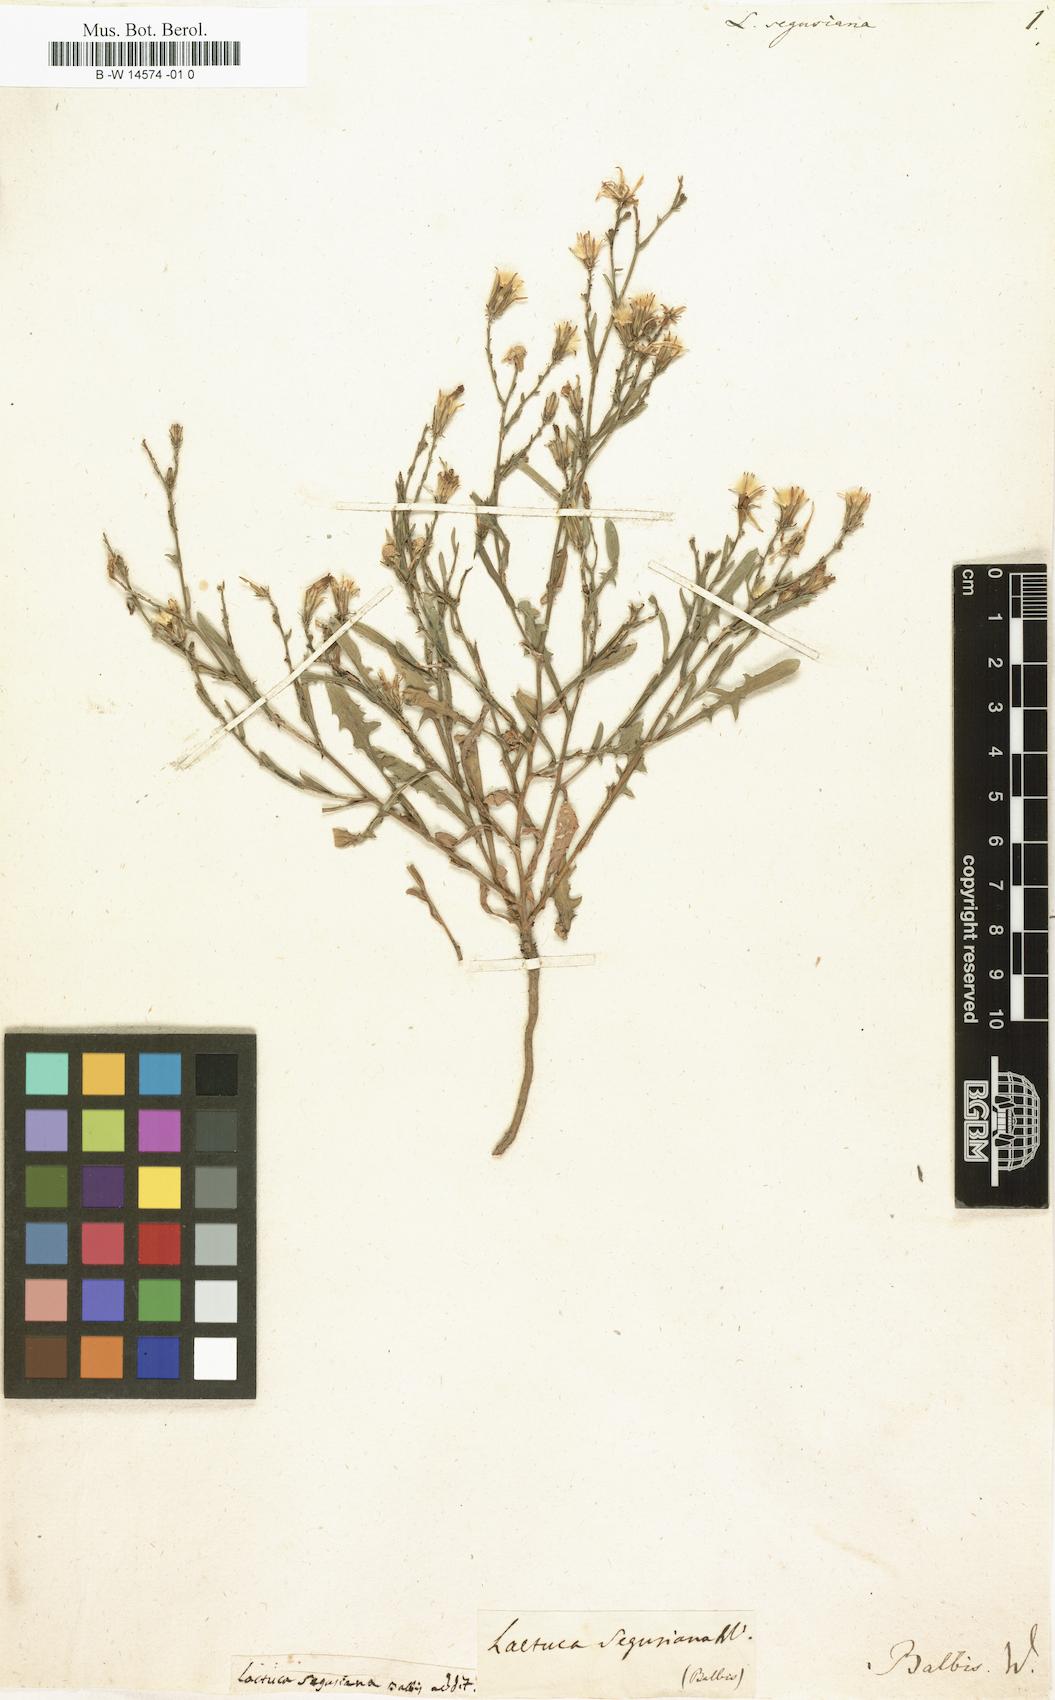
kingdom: Plantae
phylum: Tracheophyta
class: Magnoliopsida
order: Asterales
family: Asteraceae
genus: Lactuca
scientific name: Lactuca tenerrima
